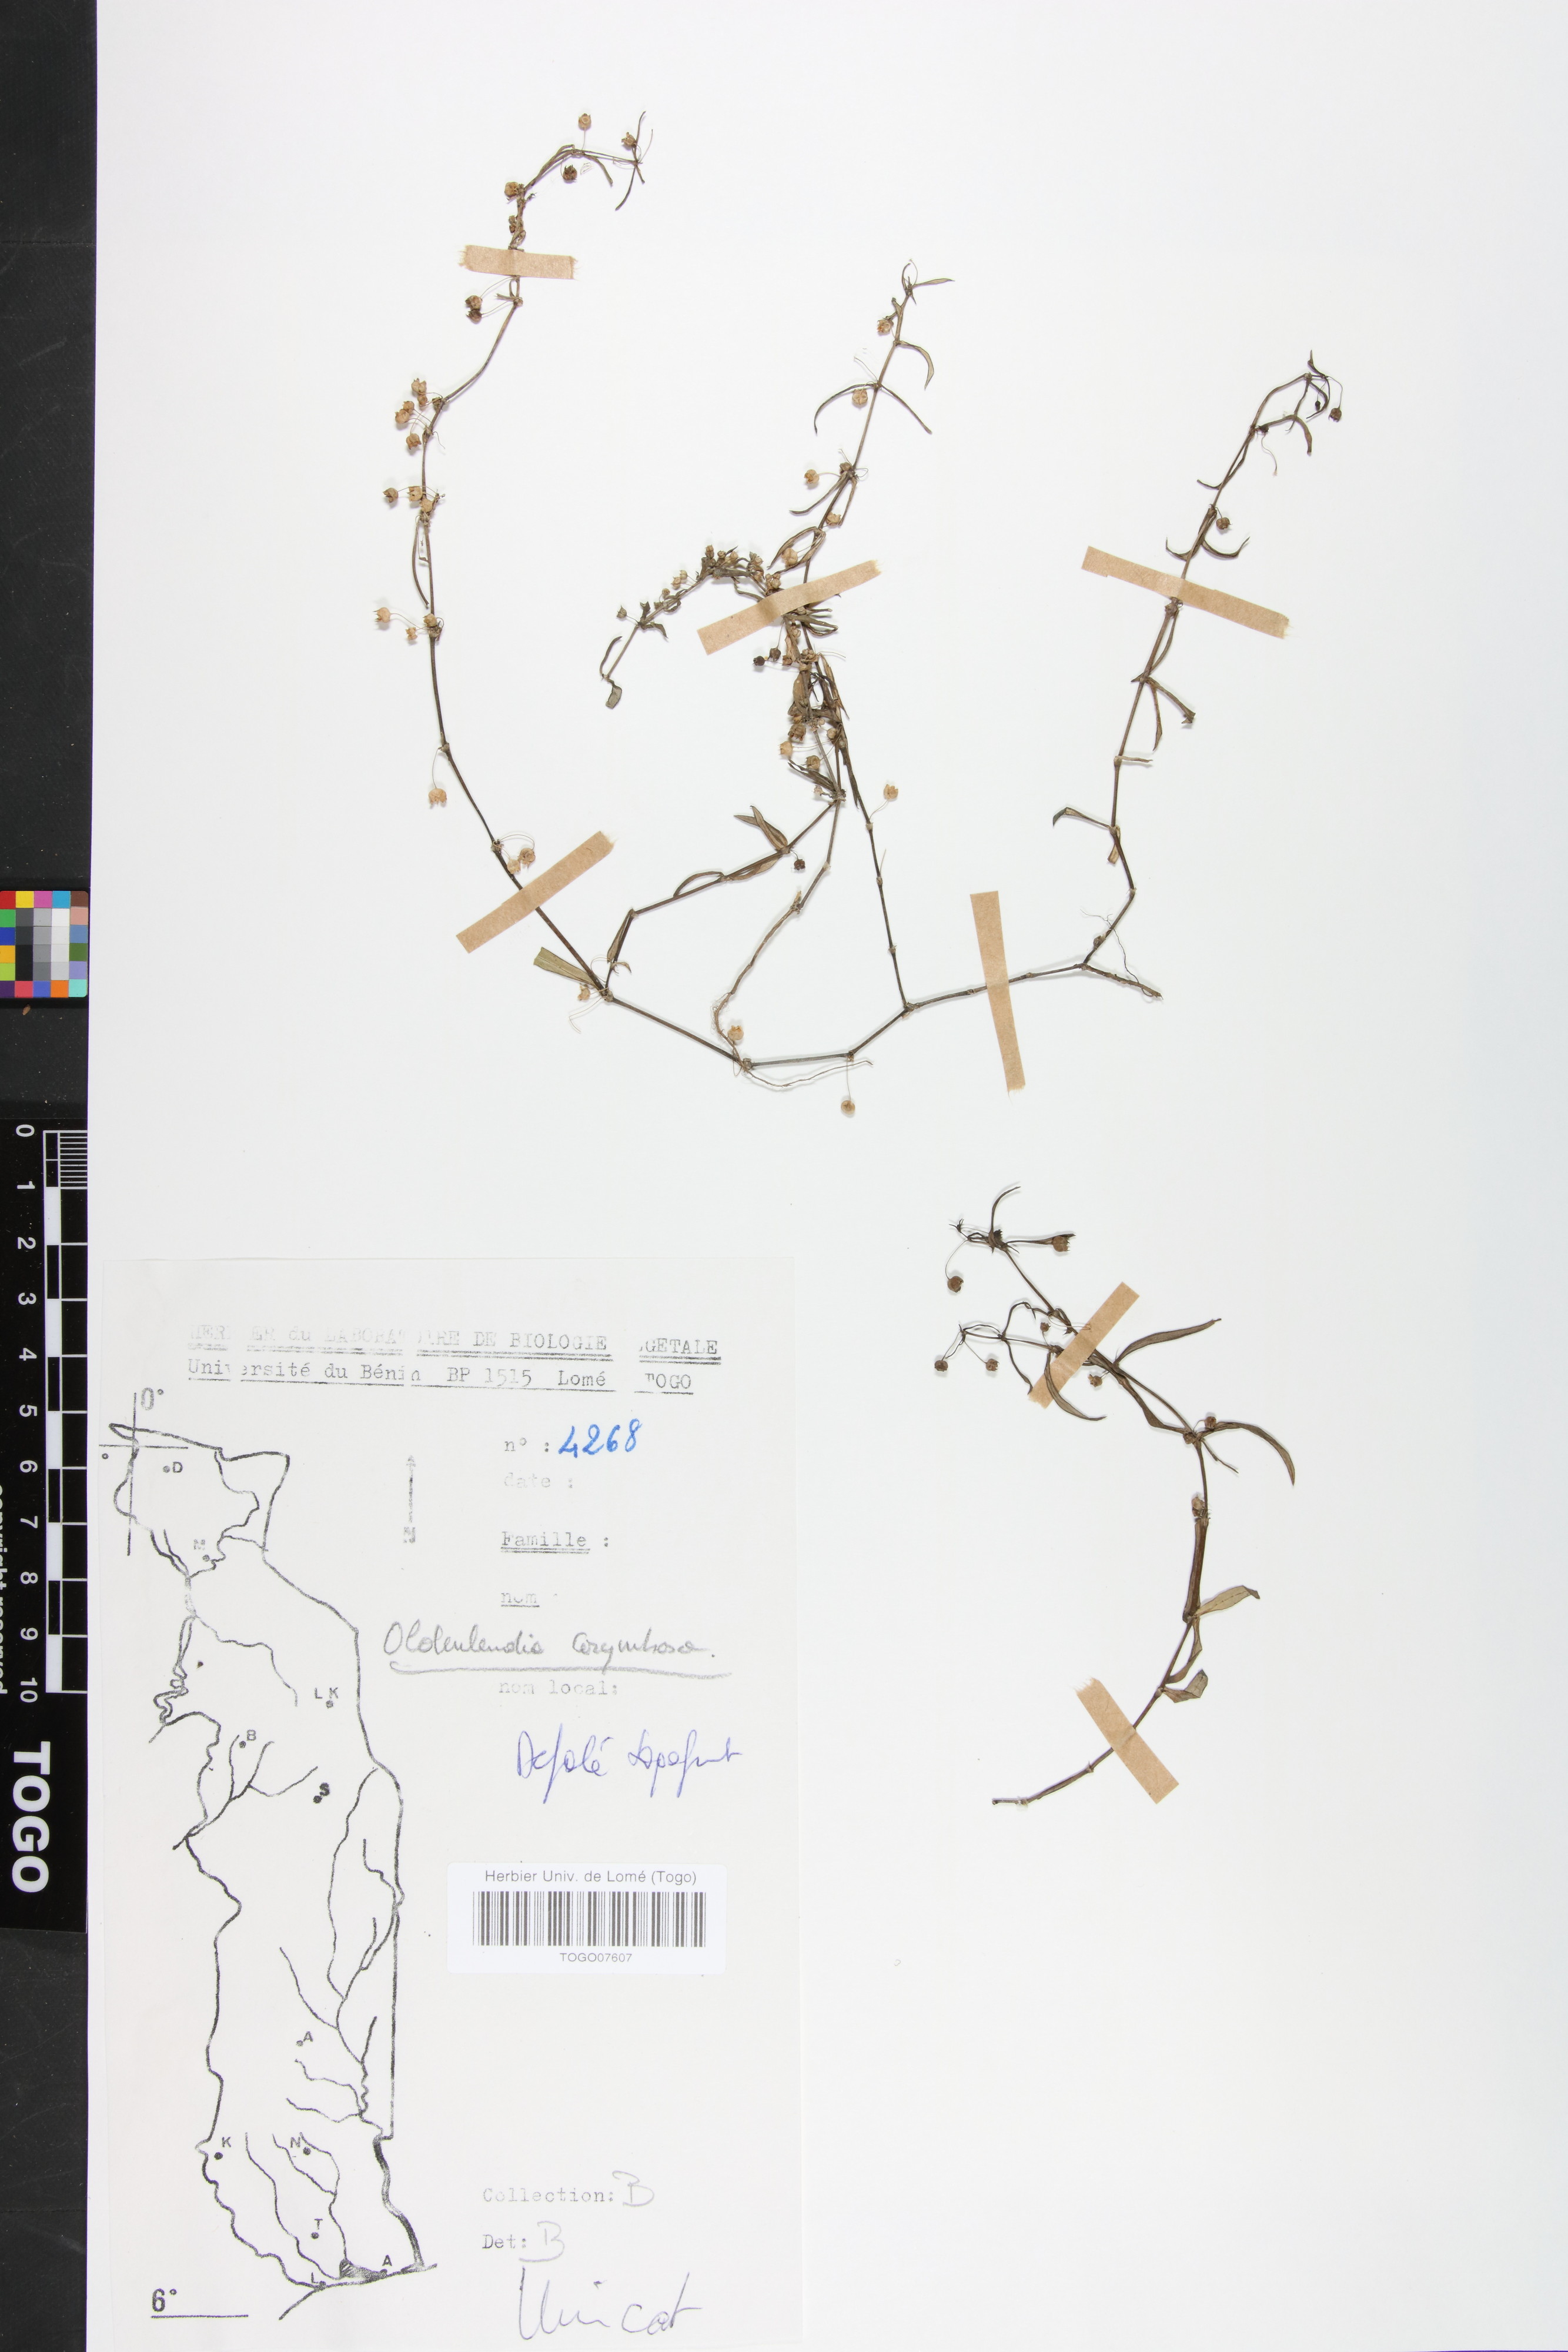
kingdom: Plantae
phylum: Tracheophyta
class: Magnoliopsida
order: Gentianales
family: Rubiaceae
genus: Oldenlandia
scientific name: Oldenlandia corymbosa
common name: Flat-top mille graines
